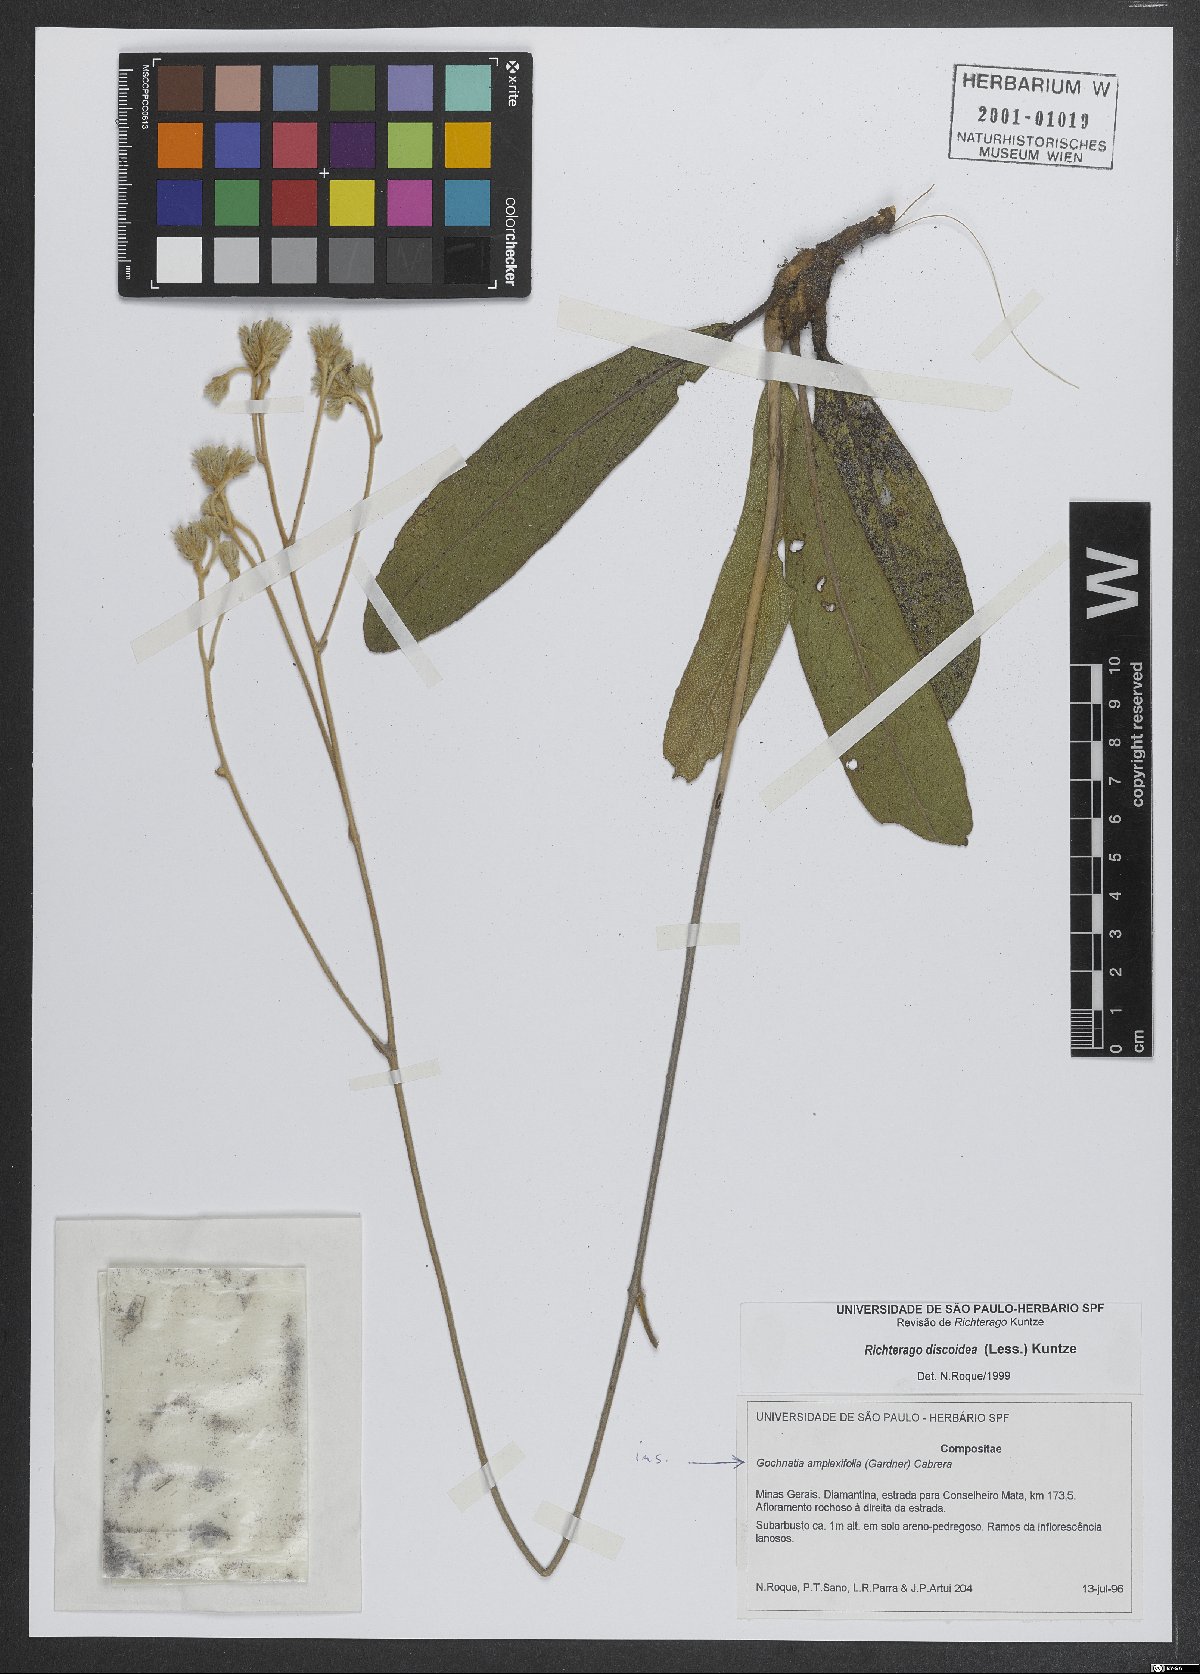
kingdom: Plantae
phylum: Tracheophyta
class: Magnoliopsida
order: Asterales
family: Asteraceae
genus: Richterago
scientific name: Richterago amplexifolia
